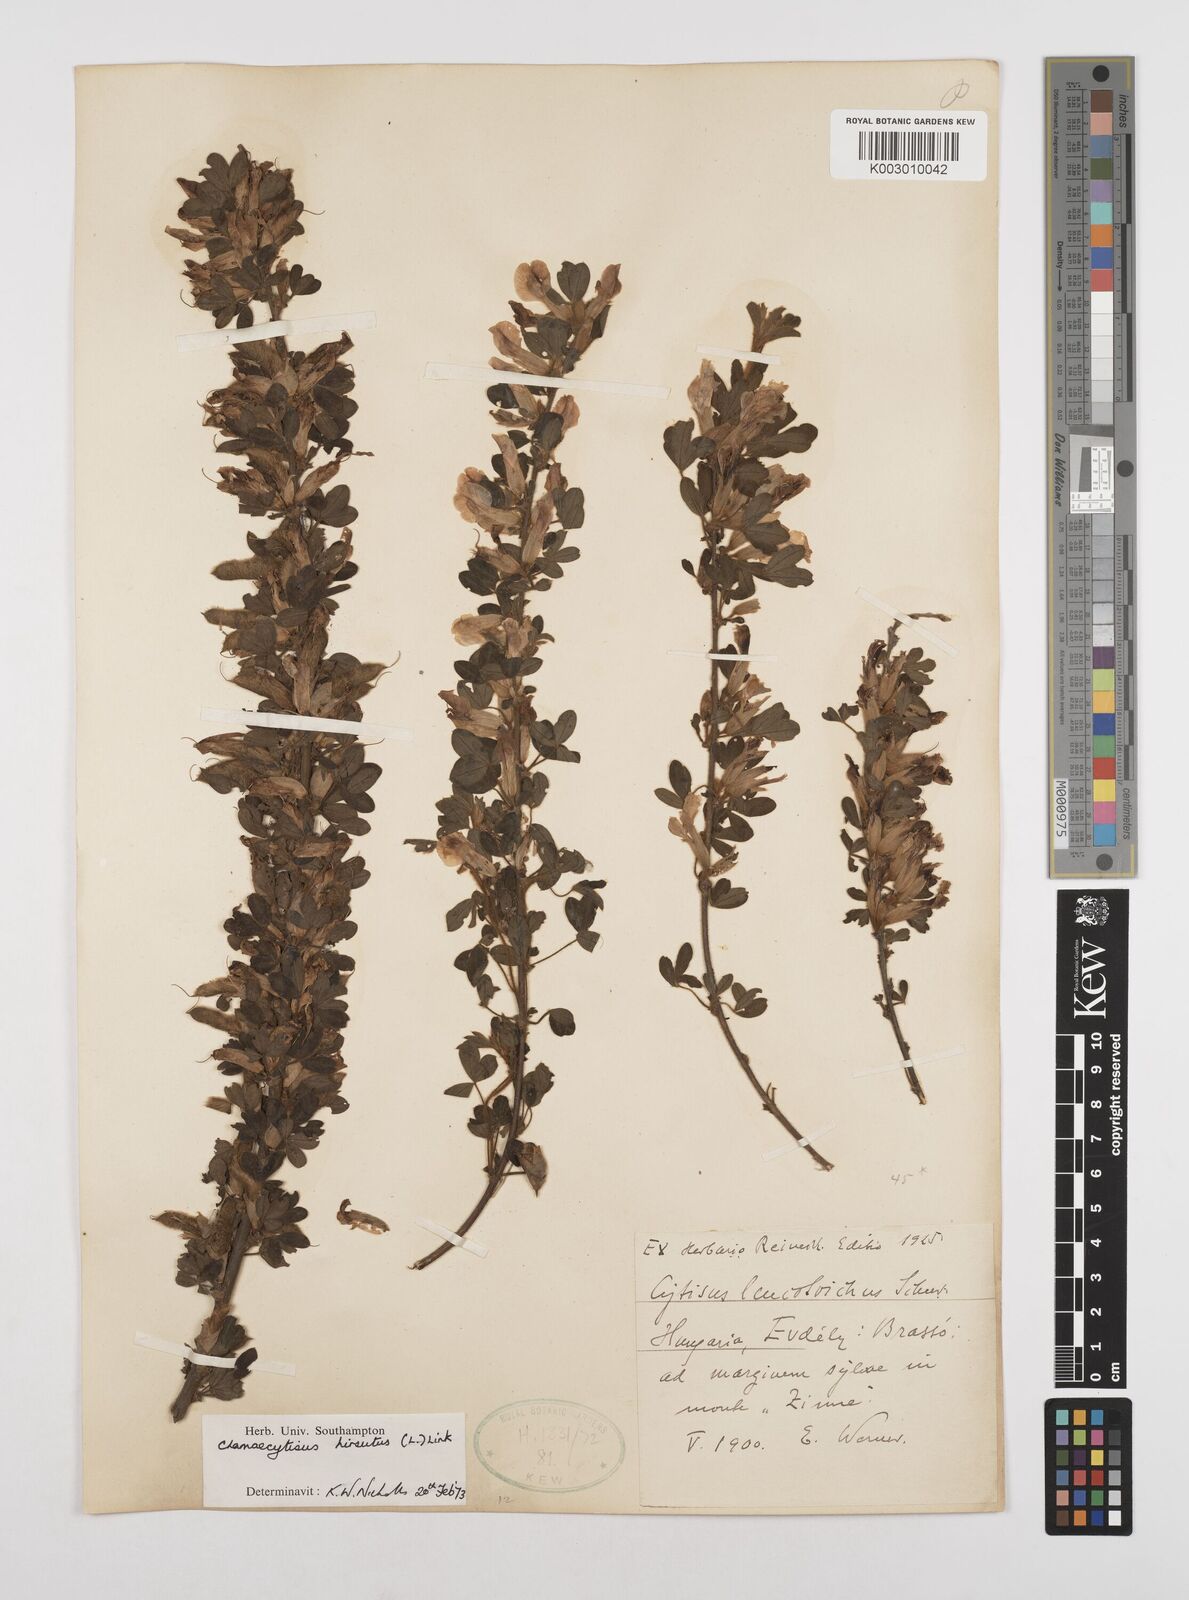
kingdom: Plantae
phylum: Tracheophyta
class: Magnoliopsida
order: Fabales
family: Fabaceae
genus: Chamaecytisus
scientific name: Chamaecytisus hirsutus
